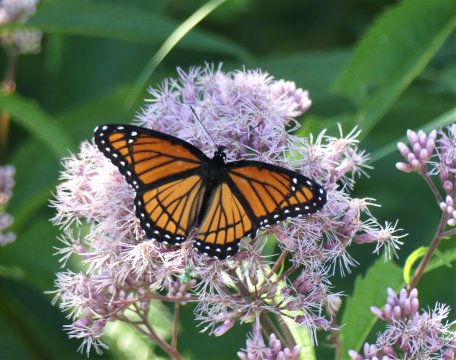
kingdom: Animalia
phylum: Arthropoda
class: Insecta
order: Lepidoptera
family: Nymphalidae
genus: Limenitis
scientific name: Limenitis archippus
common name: Viceroy
